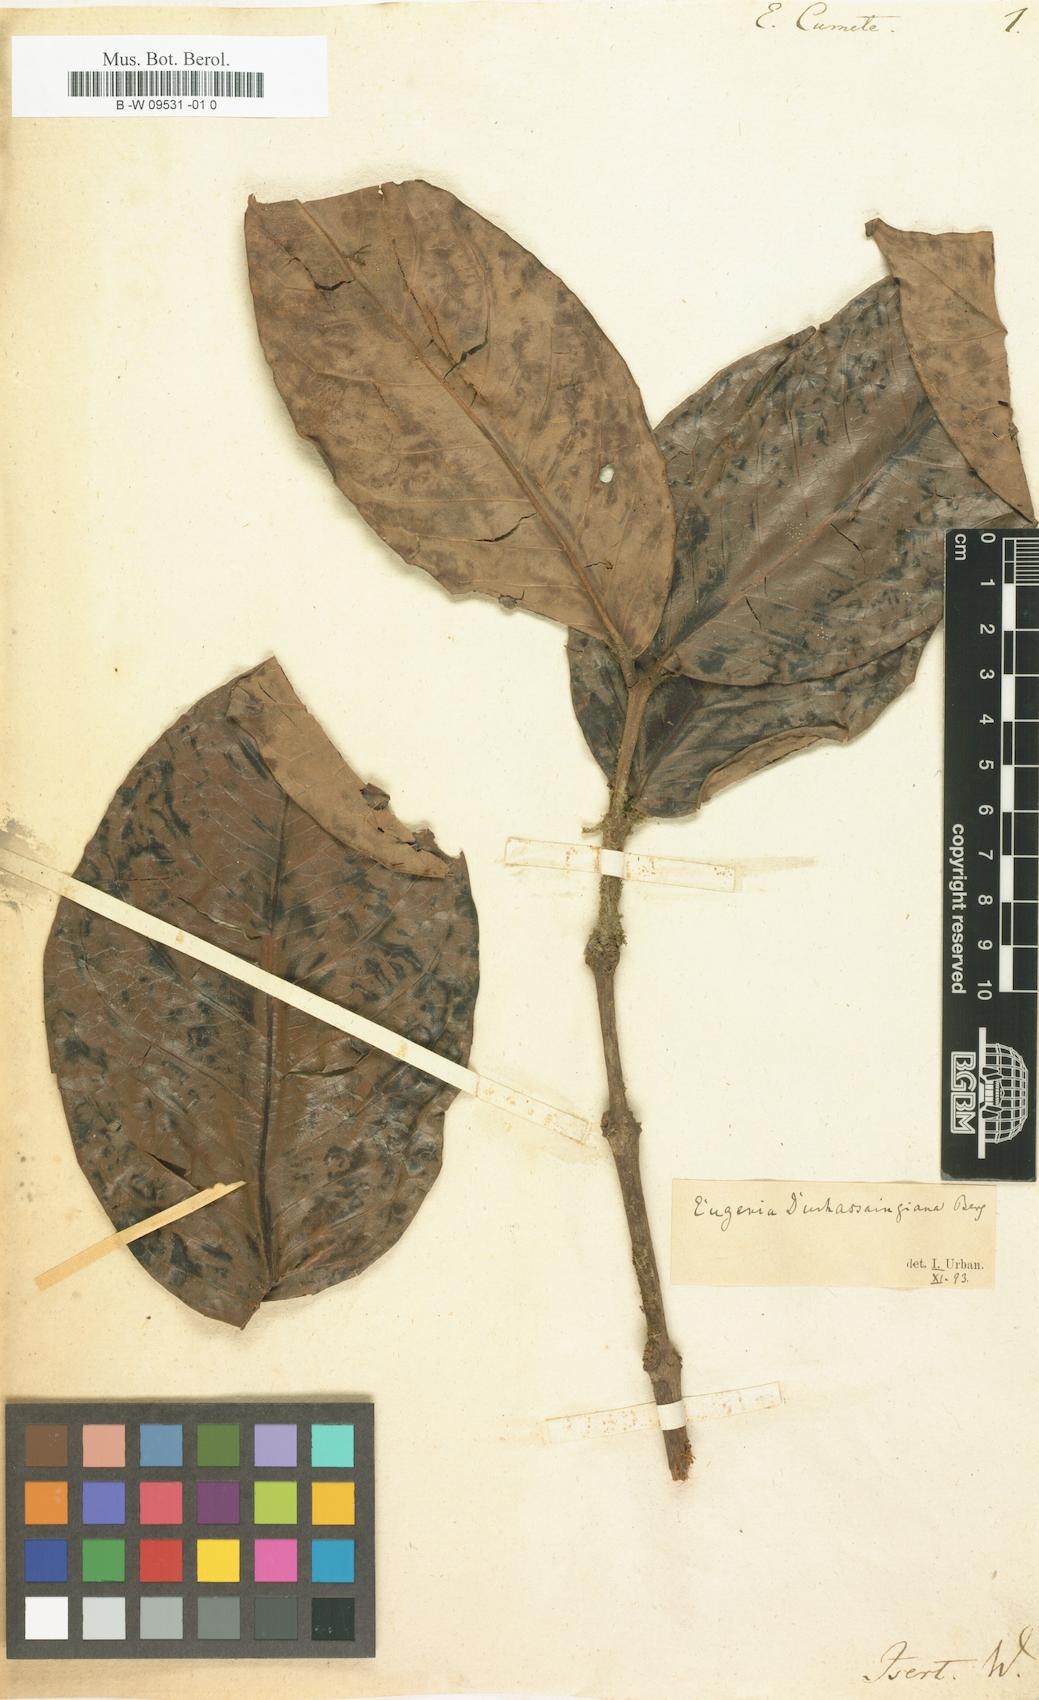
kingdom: Plantae
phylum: Tracheophyta
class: Magnoliopsida
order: Myrtales
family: Myrtaceae
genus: Eugenia
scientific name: Eugenia comete
